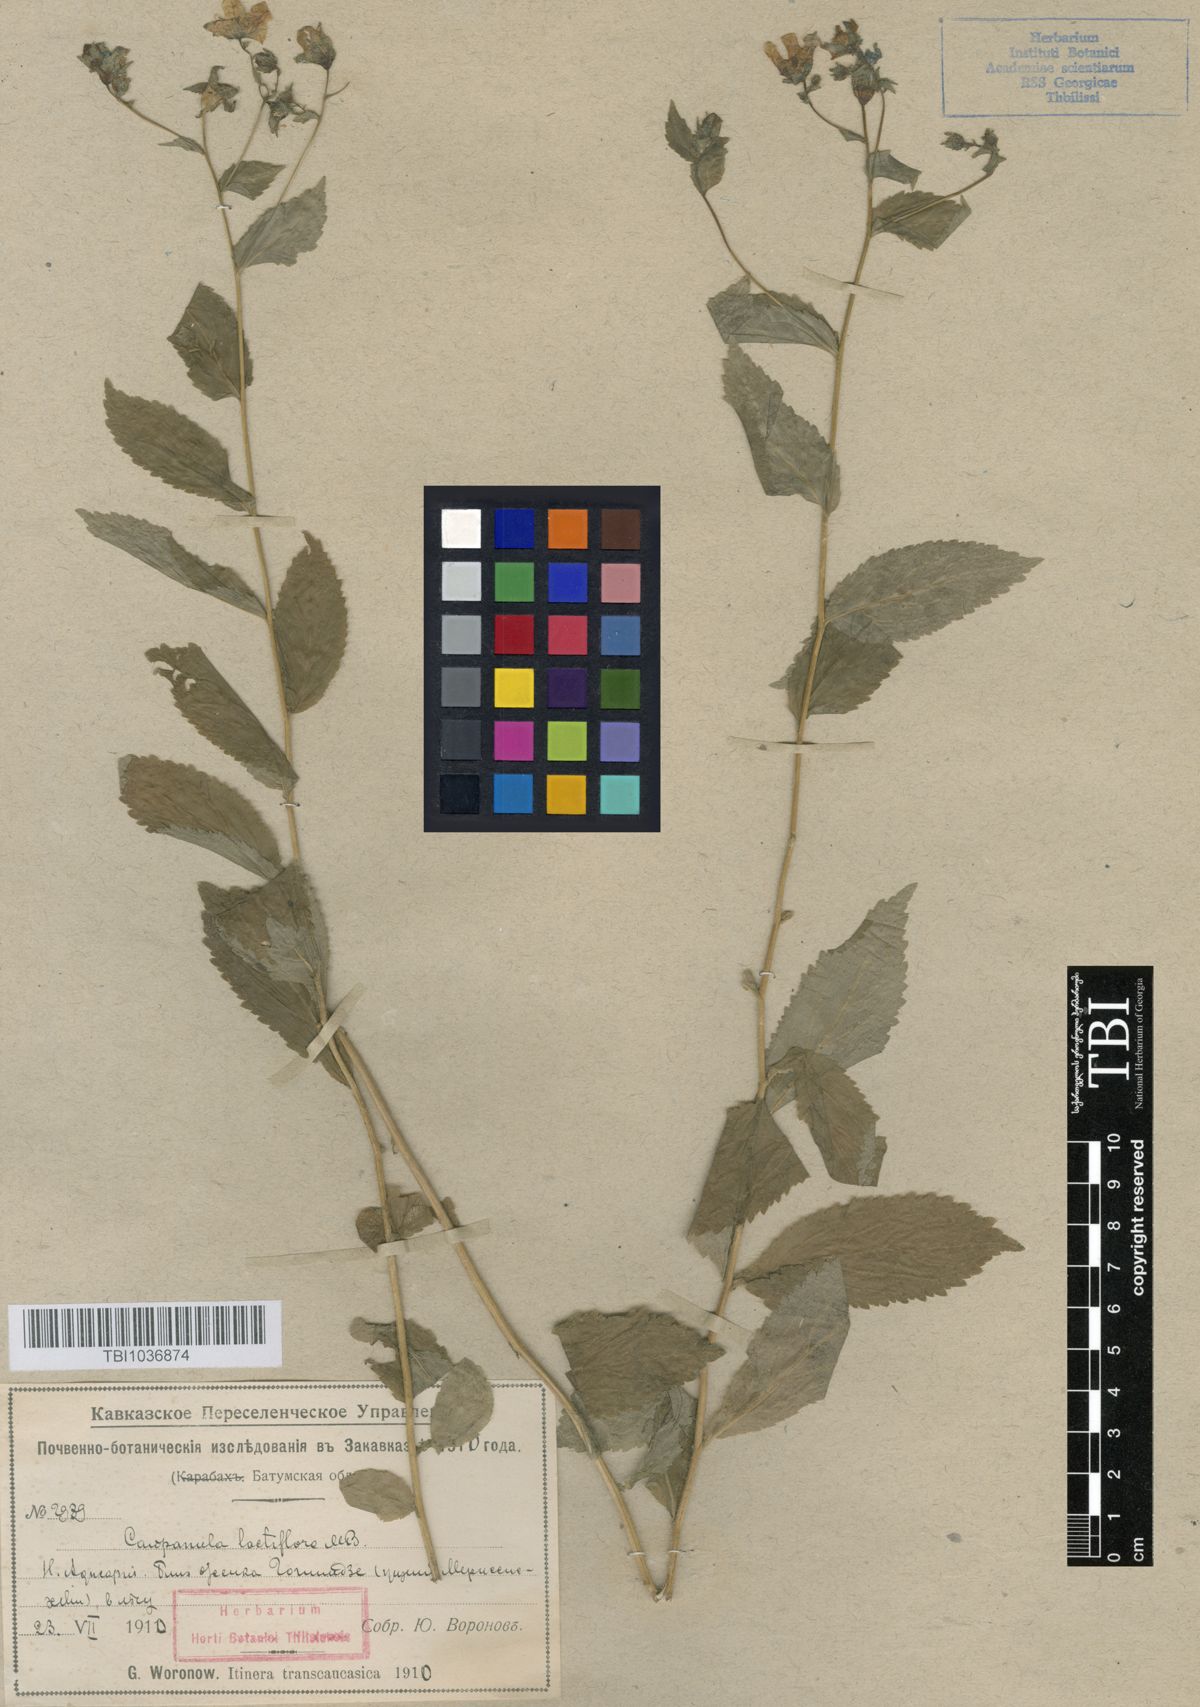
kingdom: Plantae
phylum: Tracheophyta
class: Magnoliopsida
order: Asterales
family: Campanulaceae
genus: Campanula
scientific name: Campanula lactiflora
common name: Milky bellflower
